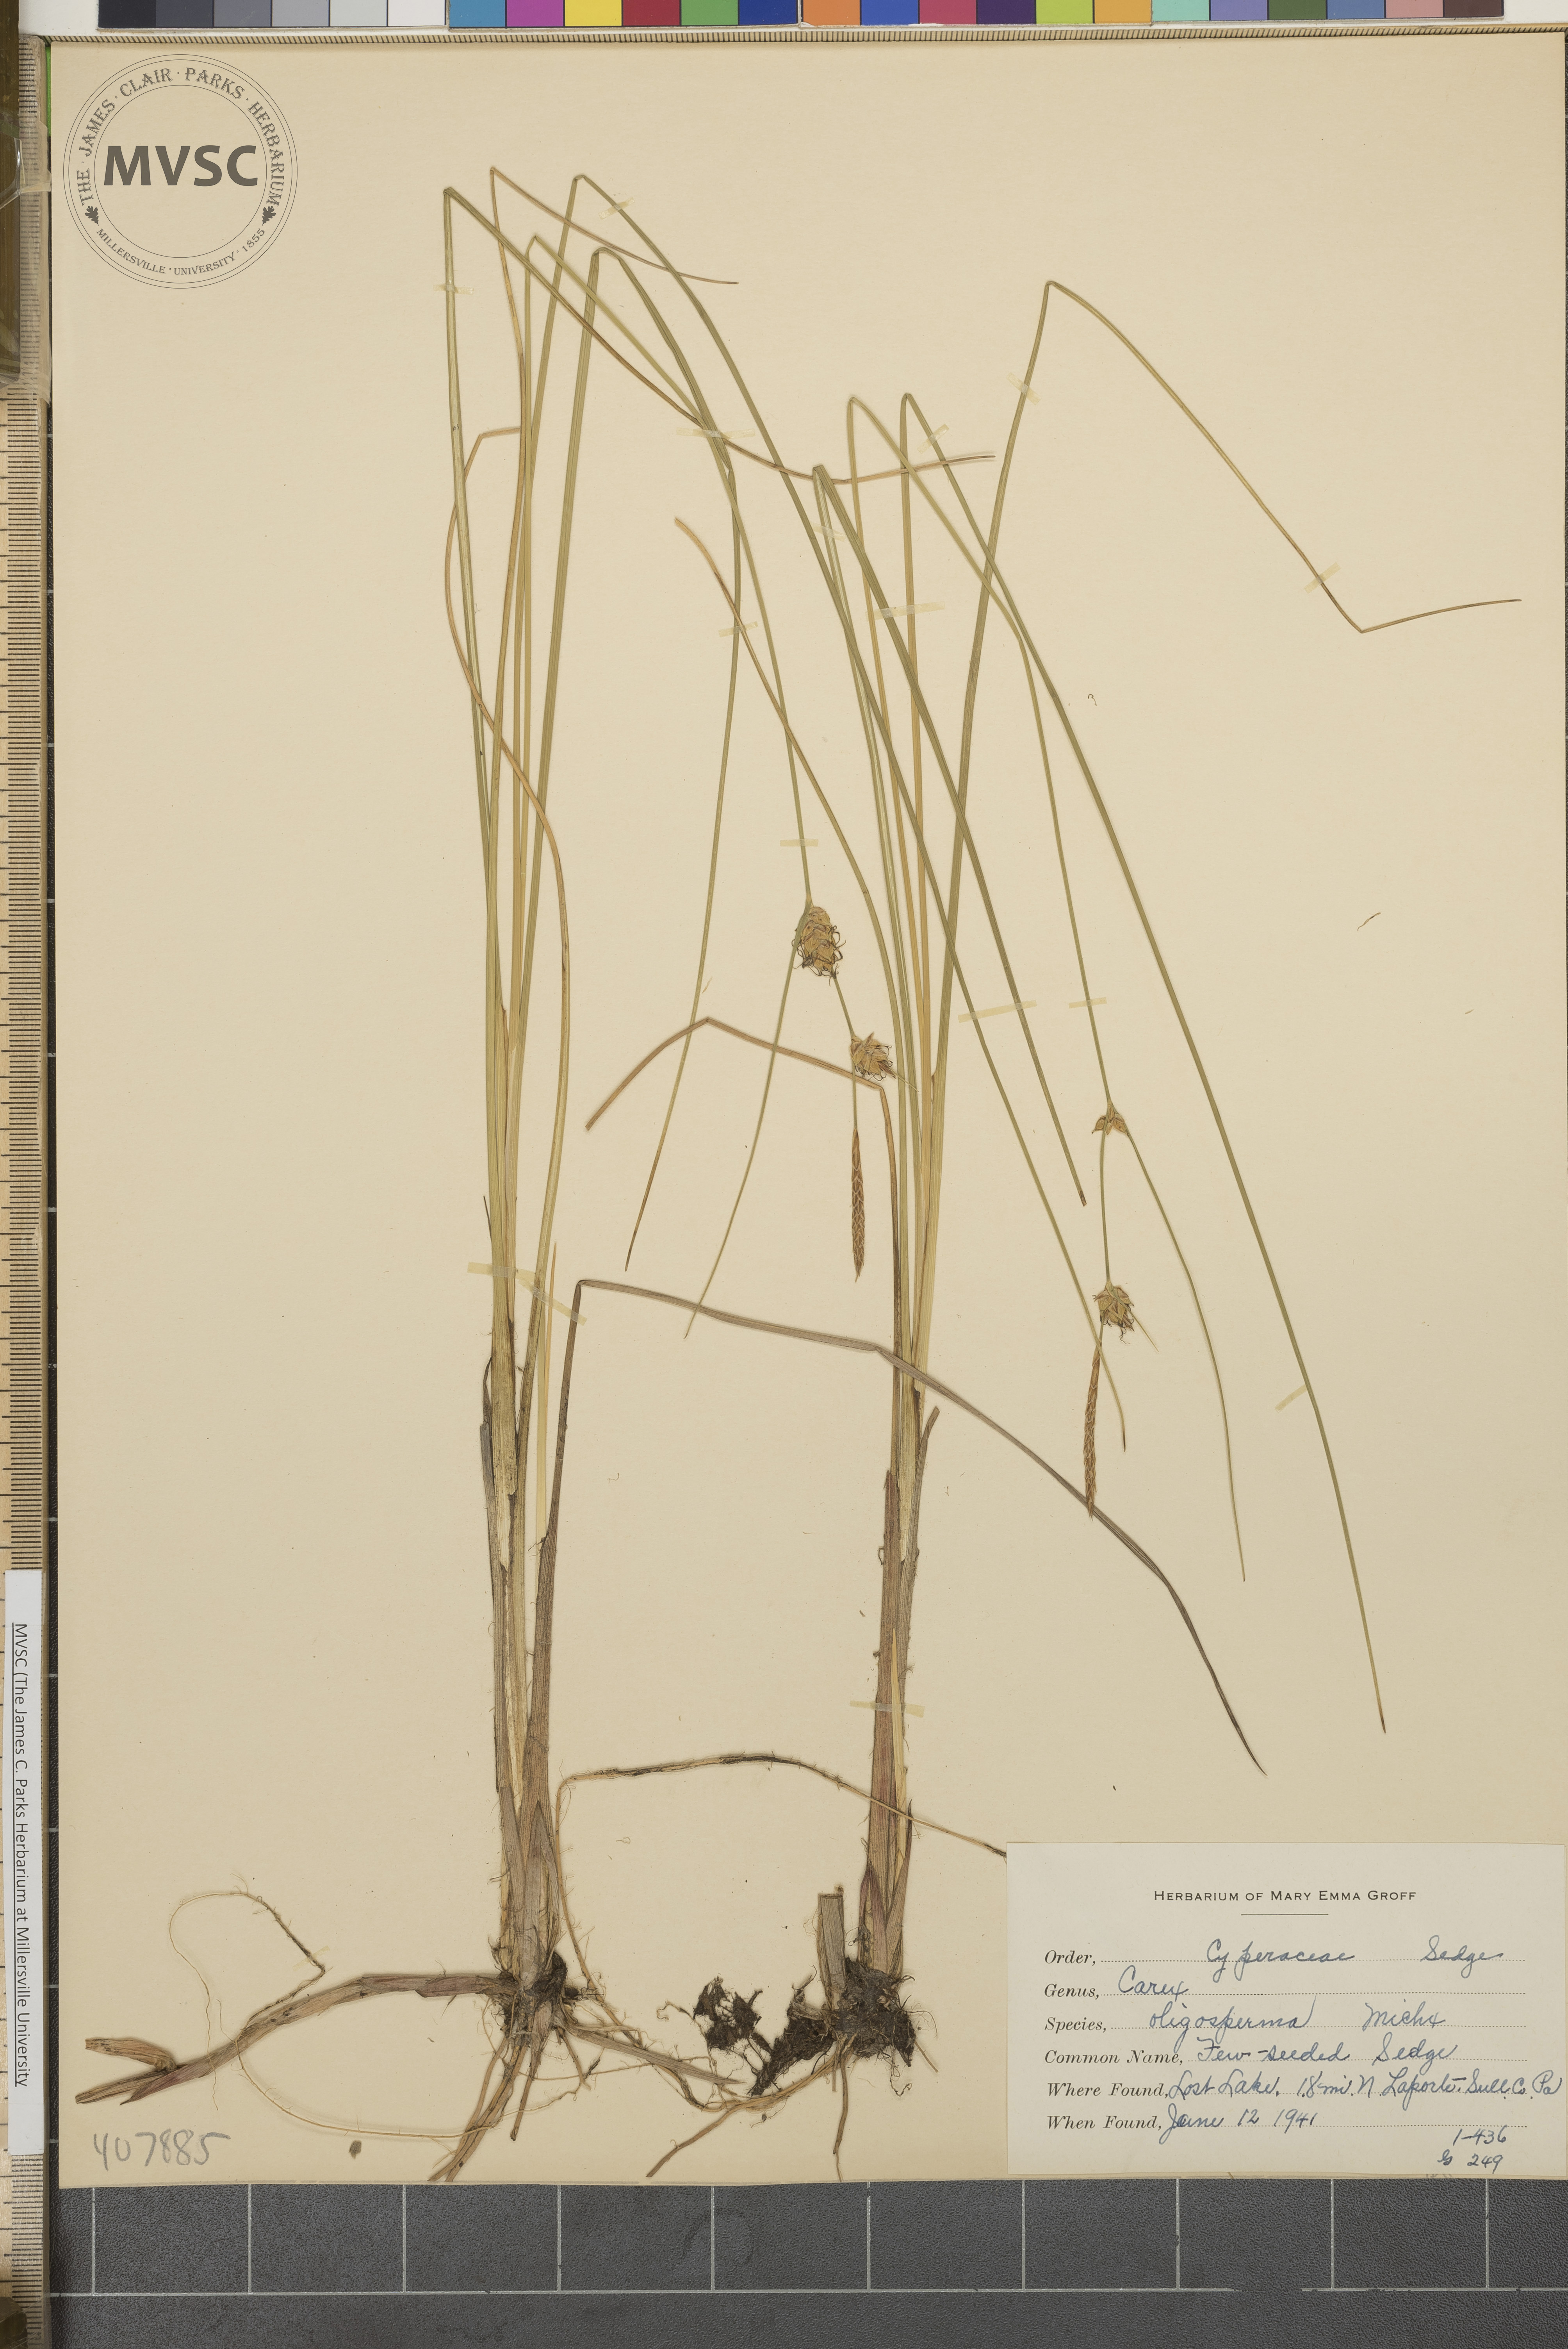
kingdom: Plantae
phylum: Tracheophyta
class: Liliopsida
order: Poales
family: Cyperaceae
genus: Carex
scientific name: Carex oligosperma
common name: Few-seeded sedge
